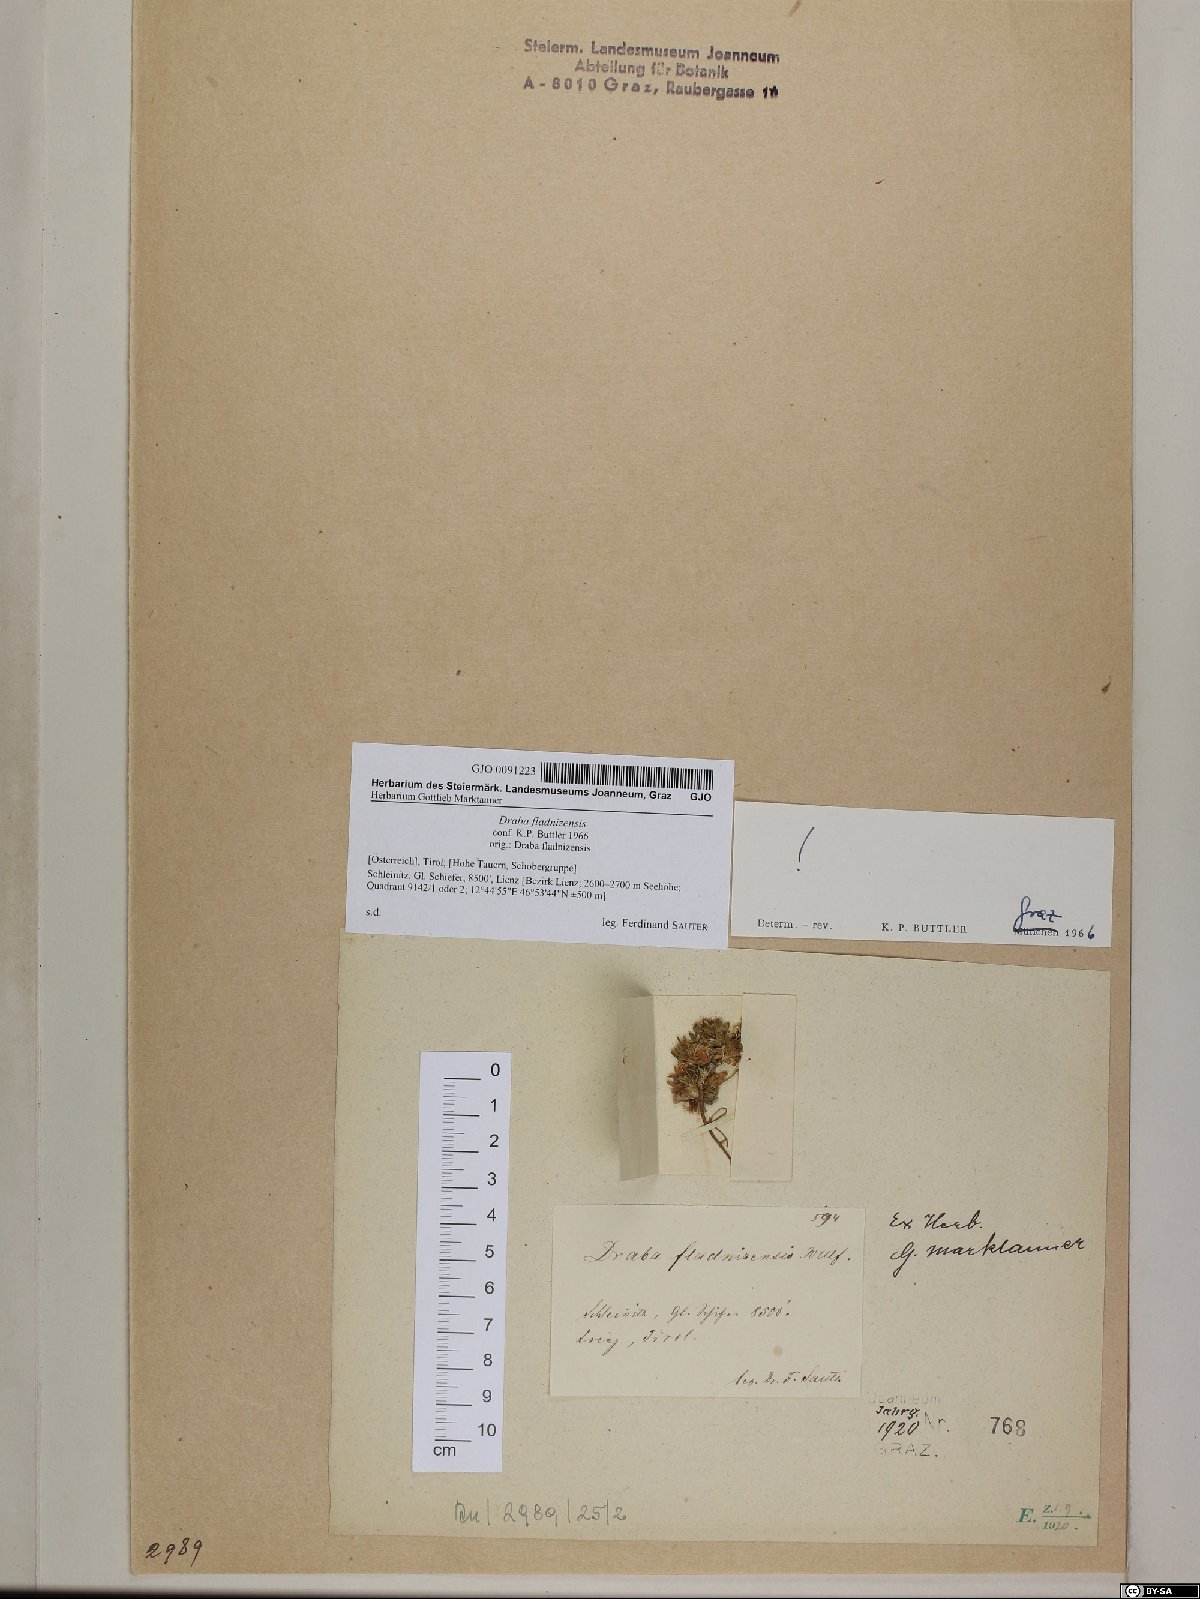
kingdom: Plantae
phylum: Tracheophyta
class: Magnoliopsida
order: Brassicales
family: Brassicaceae
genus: Draba
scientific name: Draba fladnizensis
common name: Austrian draba
